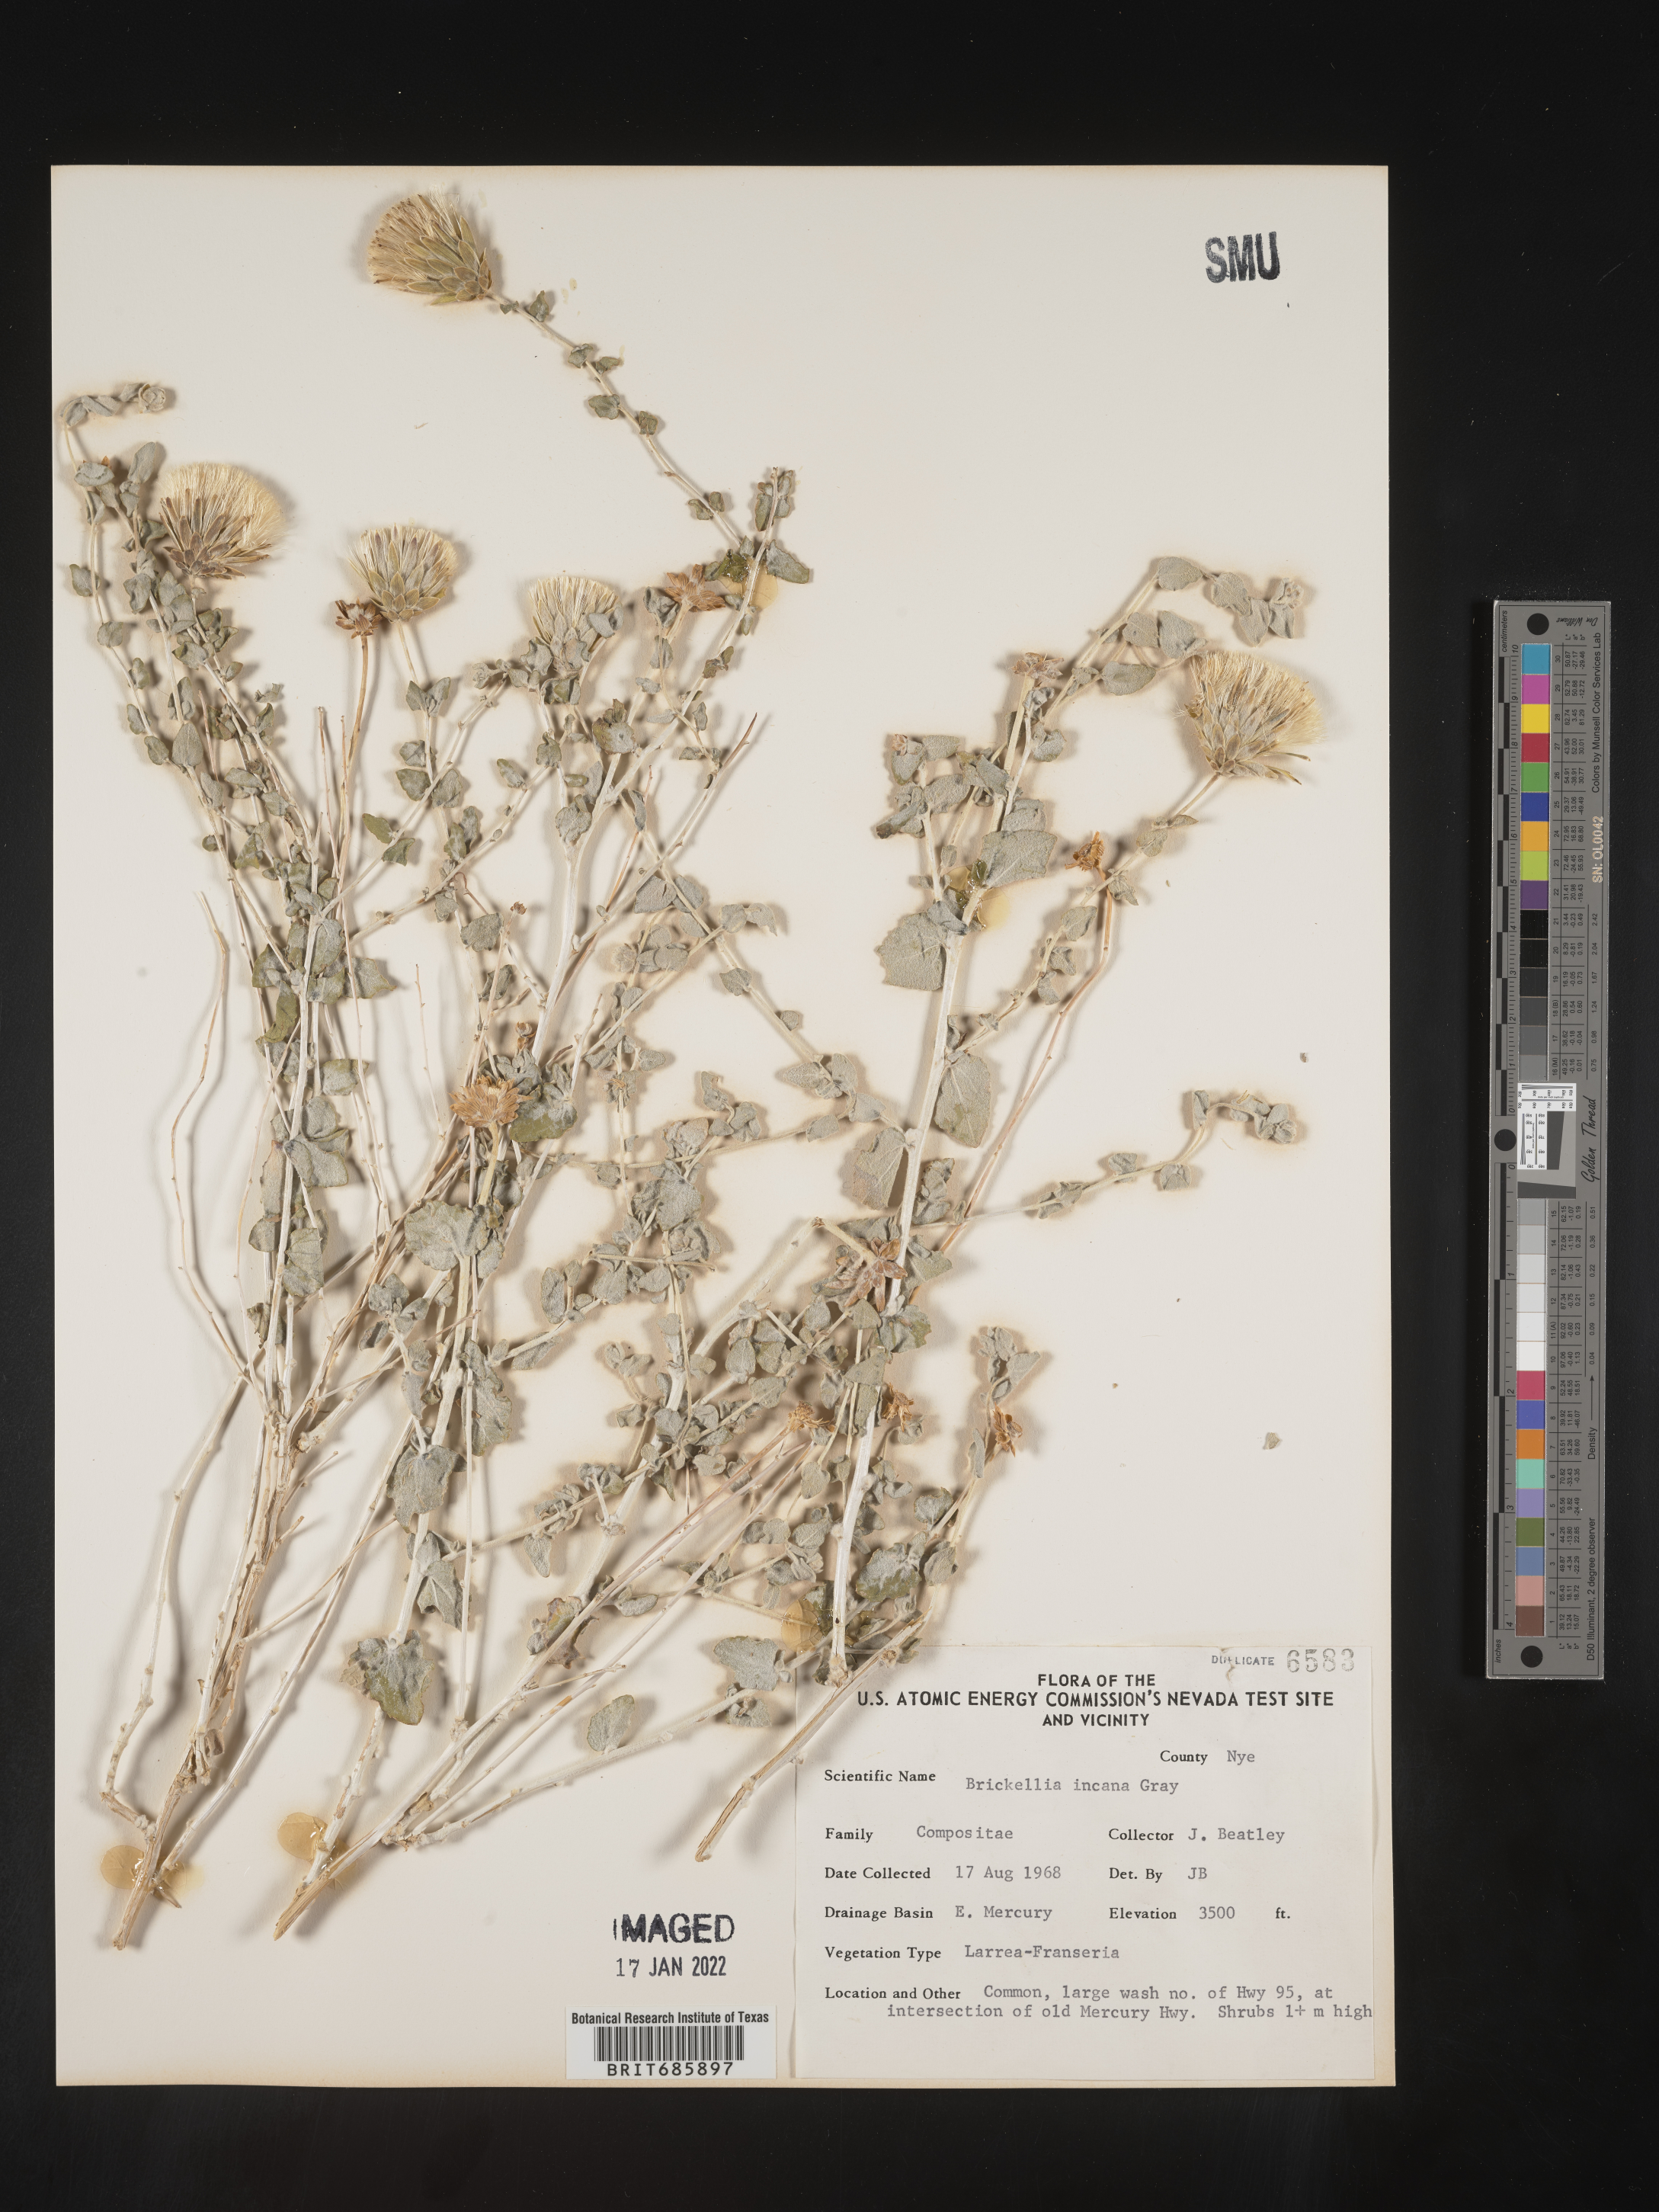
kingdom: Plantae
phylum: Tracheophyta
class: Magnoliopsida
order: Asterales
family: Asteraceae
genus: Brickellia
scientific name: Brickellia incana
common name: Woolly brickelbush
